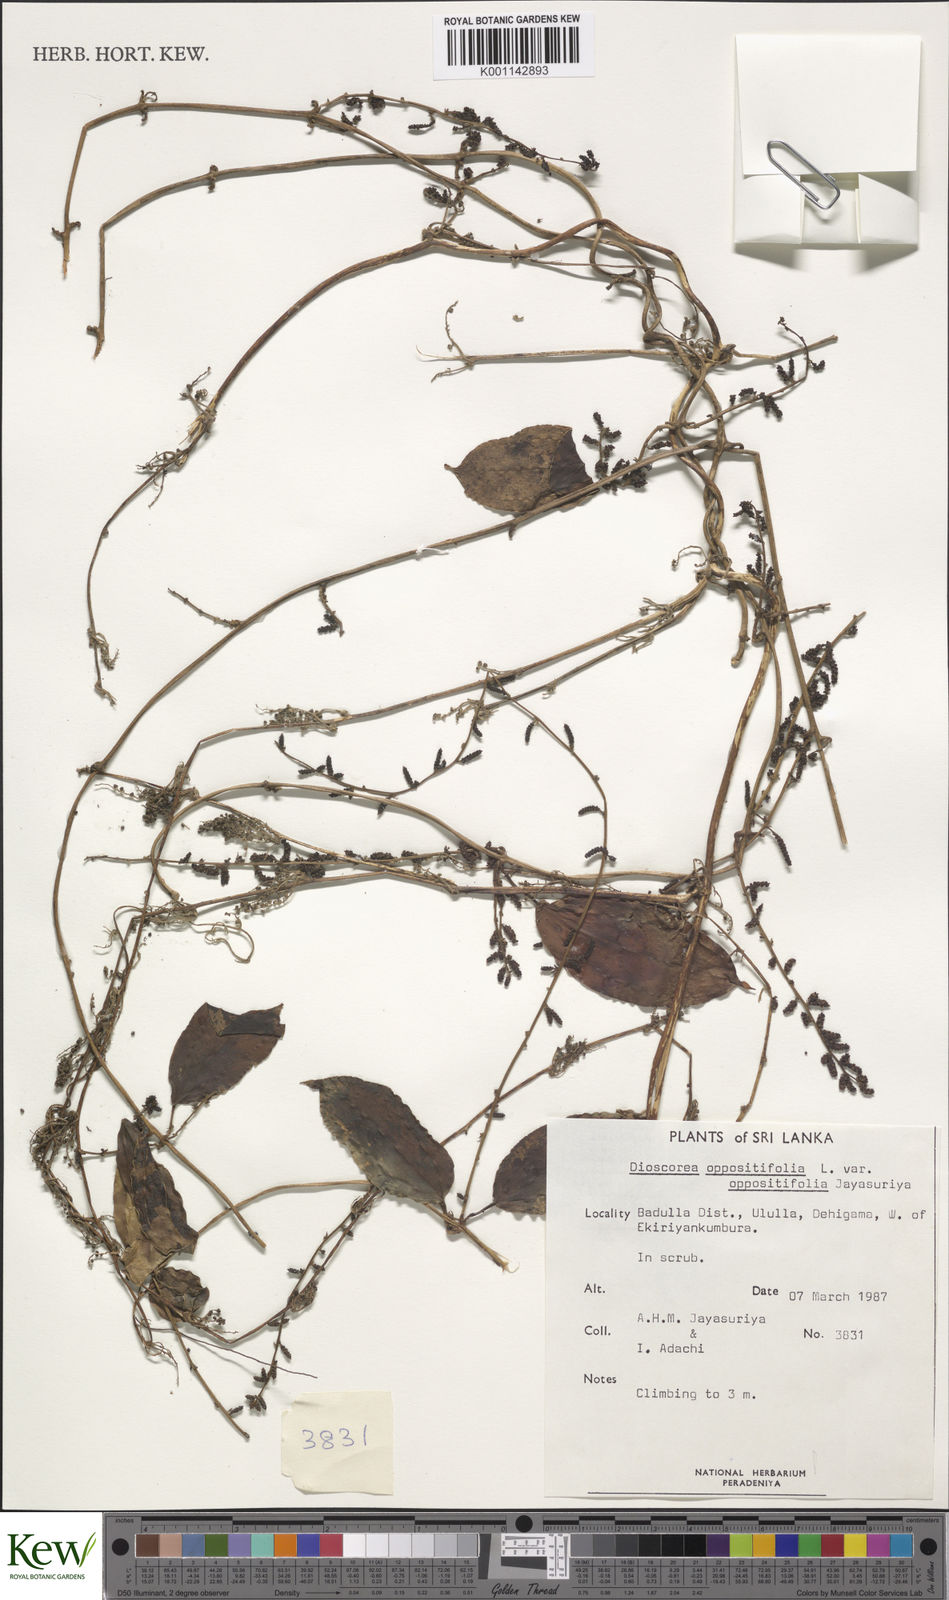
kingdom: Plantae
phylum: Tracheophyta
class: Liliopsida
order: Dioscoreales
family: Dioscoreaceae
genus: Dioscorea
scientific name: Dioscorea oppositifolia
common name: Chinese yam
